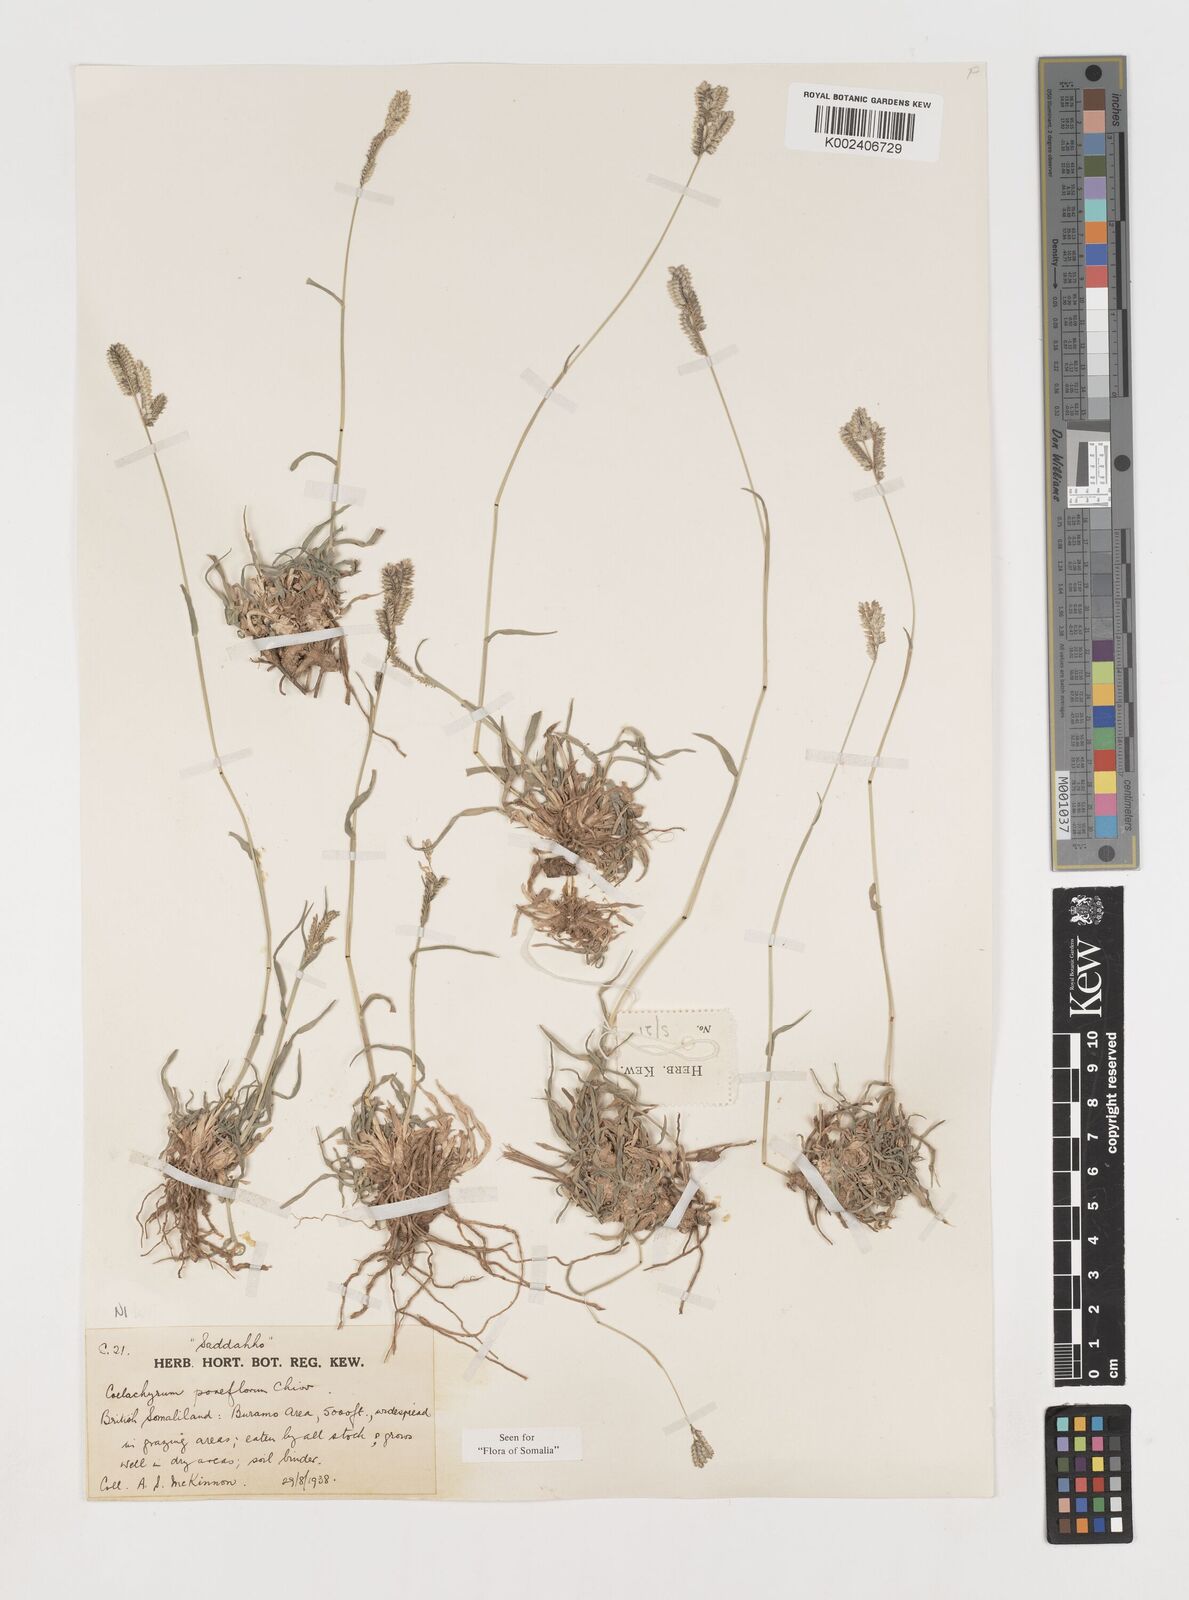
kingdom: Plantae
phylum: Tracheophyta
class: Liliopsida
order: Poales
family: Poaceae
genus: Coelachyrum
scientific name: Coelachyrum poiflorum
